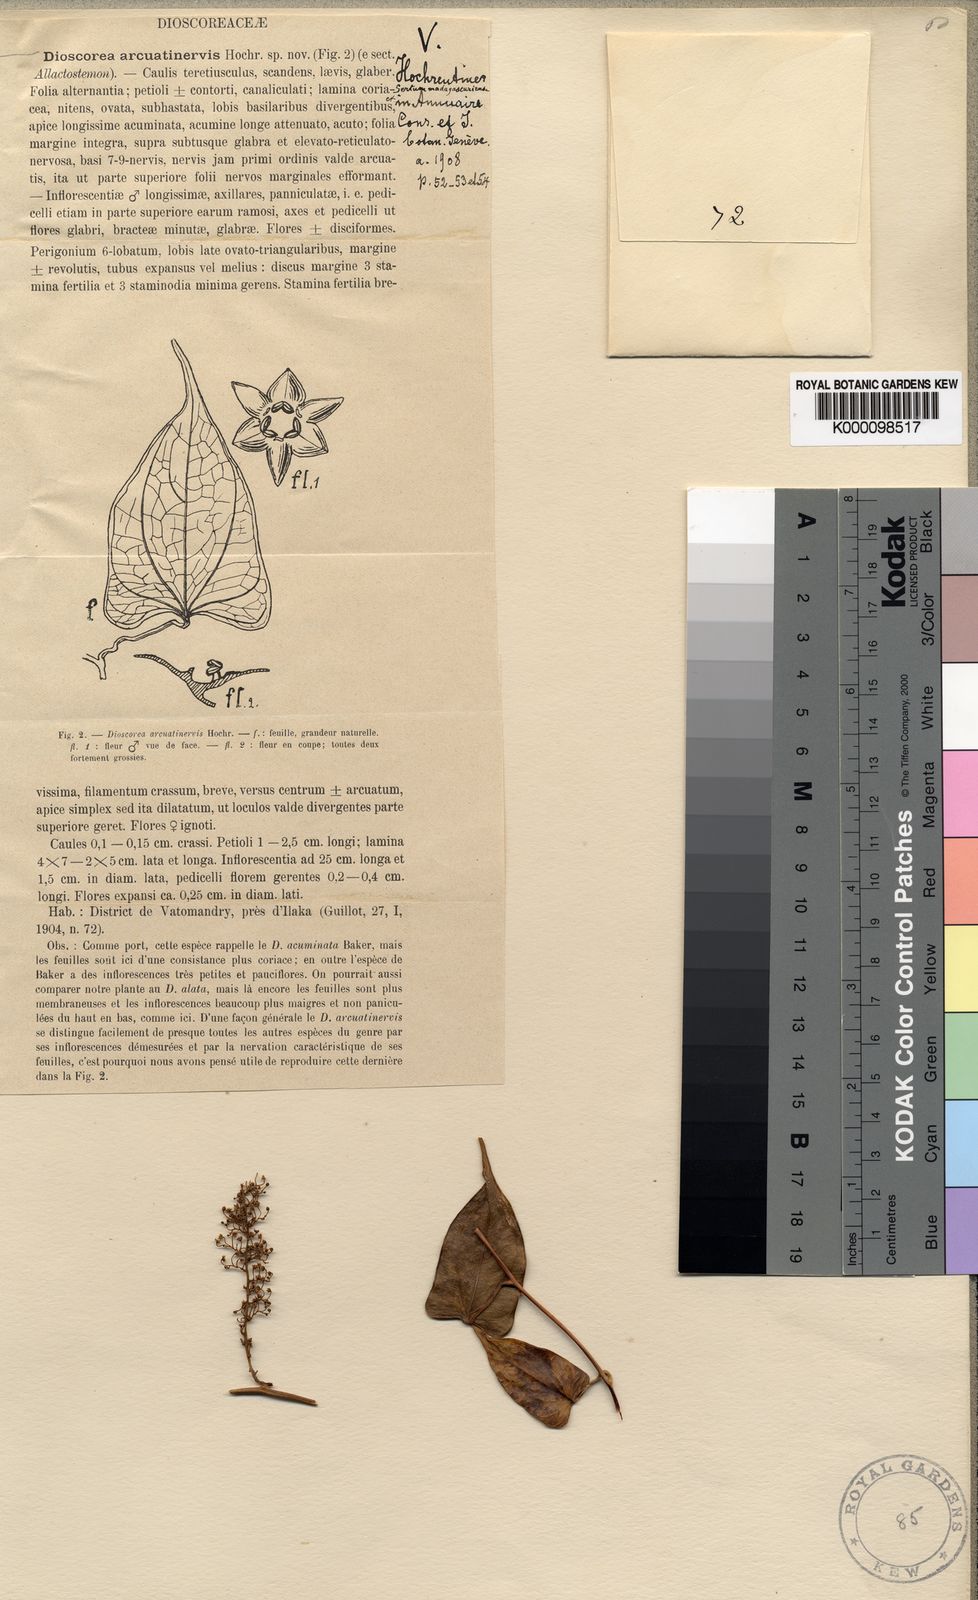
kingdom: Plantae
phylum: Tracheophyta
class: Liliopsida
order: Dioscoreales
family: Dioscoreaceae
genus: Dioscorea
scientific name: Dioscorea arcuatinervis
